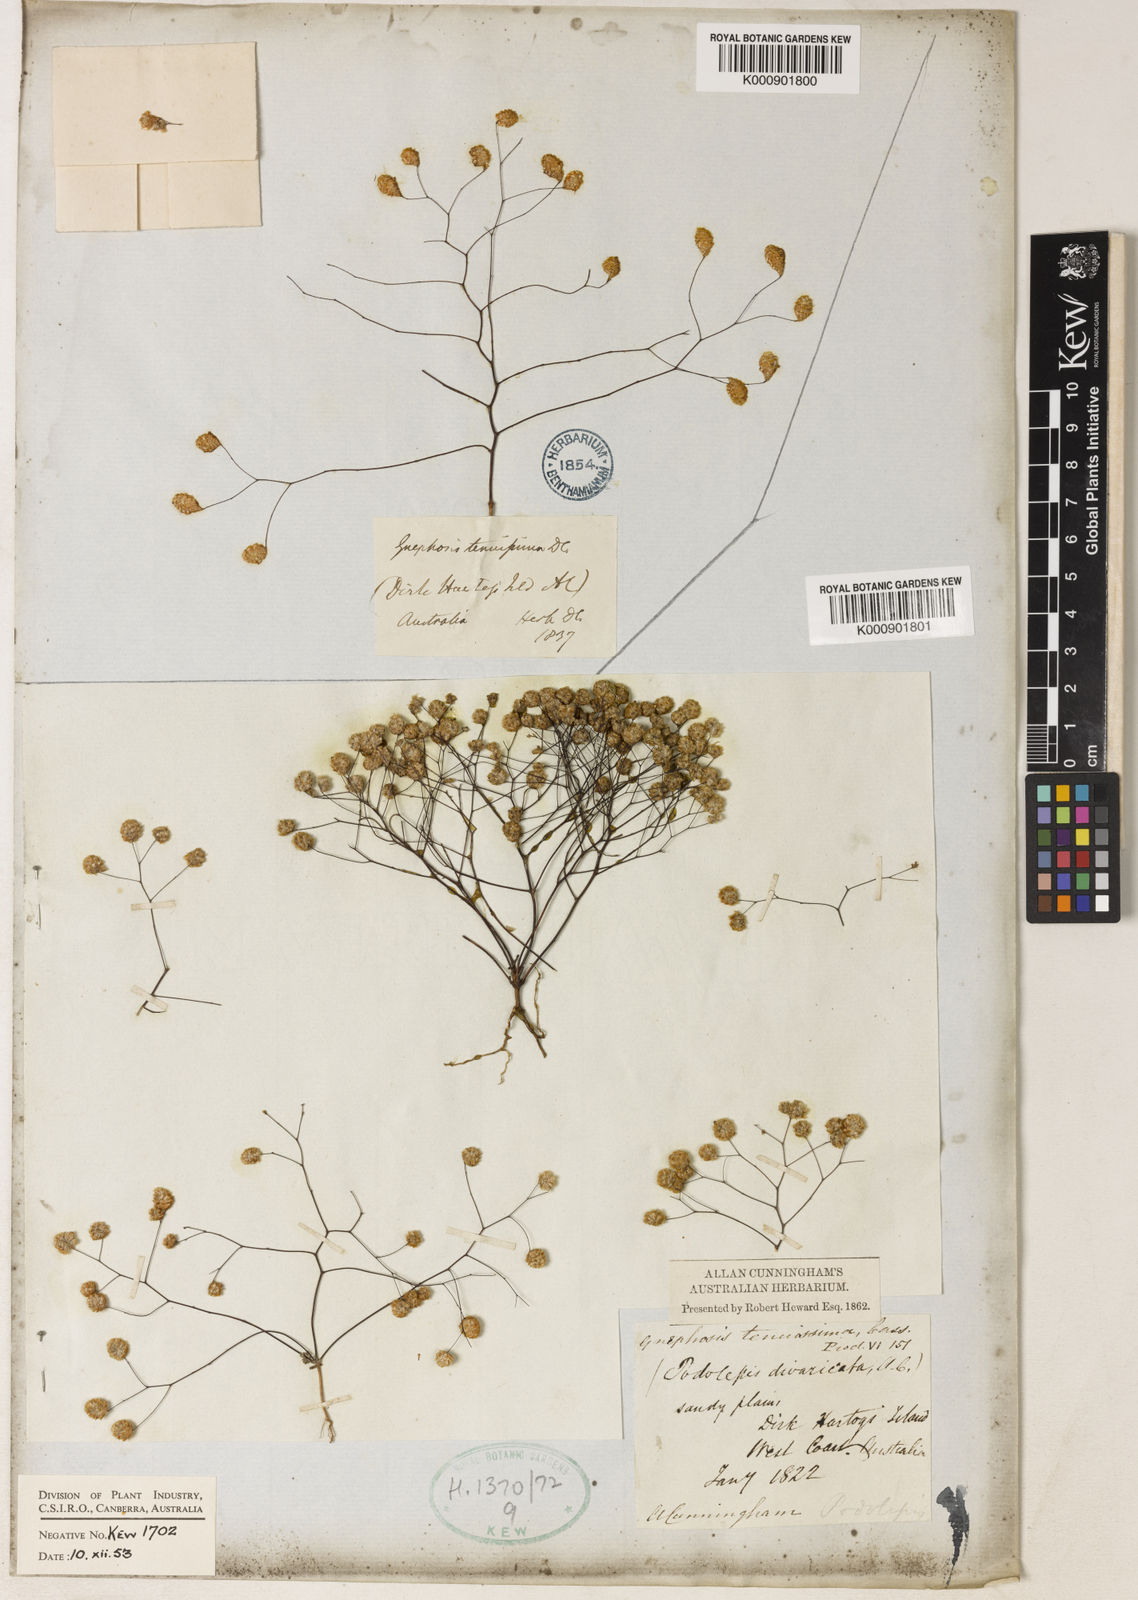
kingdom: Plantae
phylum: Tracheophyta
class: Magnoliopsida
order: Asterales
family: Asteraceae
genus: Gnephosis
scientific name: Gnephosis tenuissima
